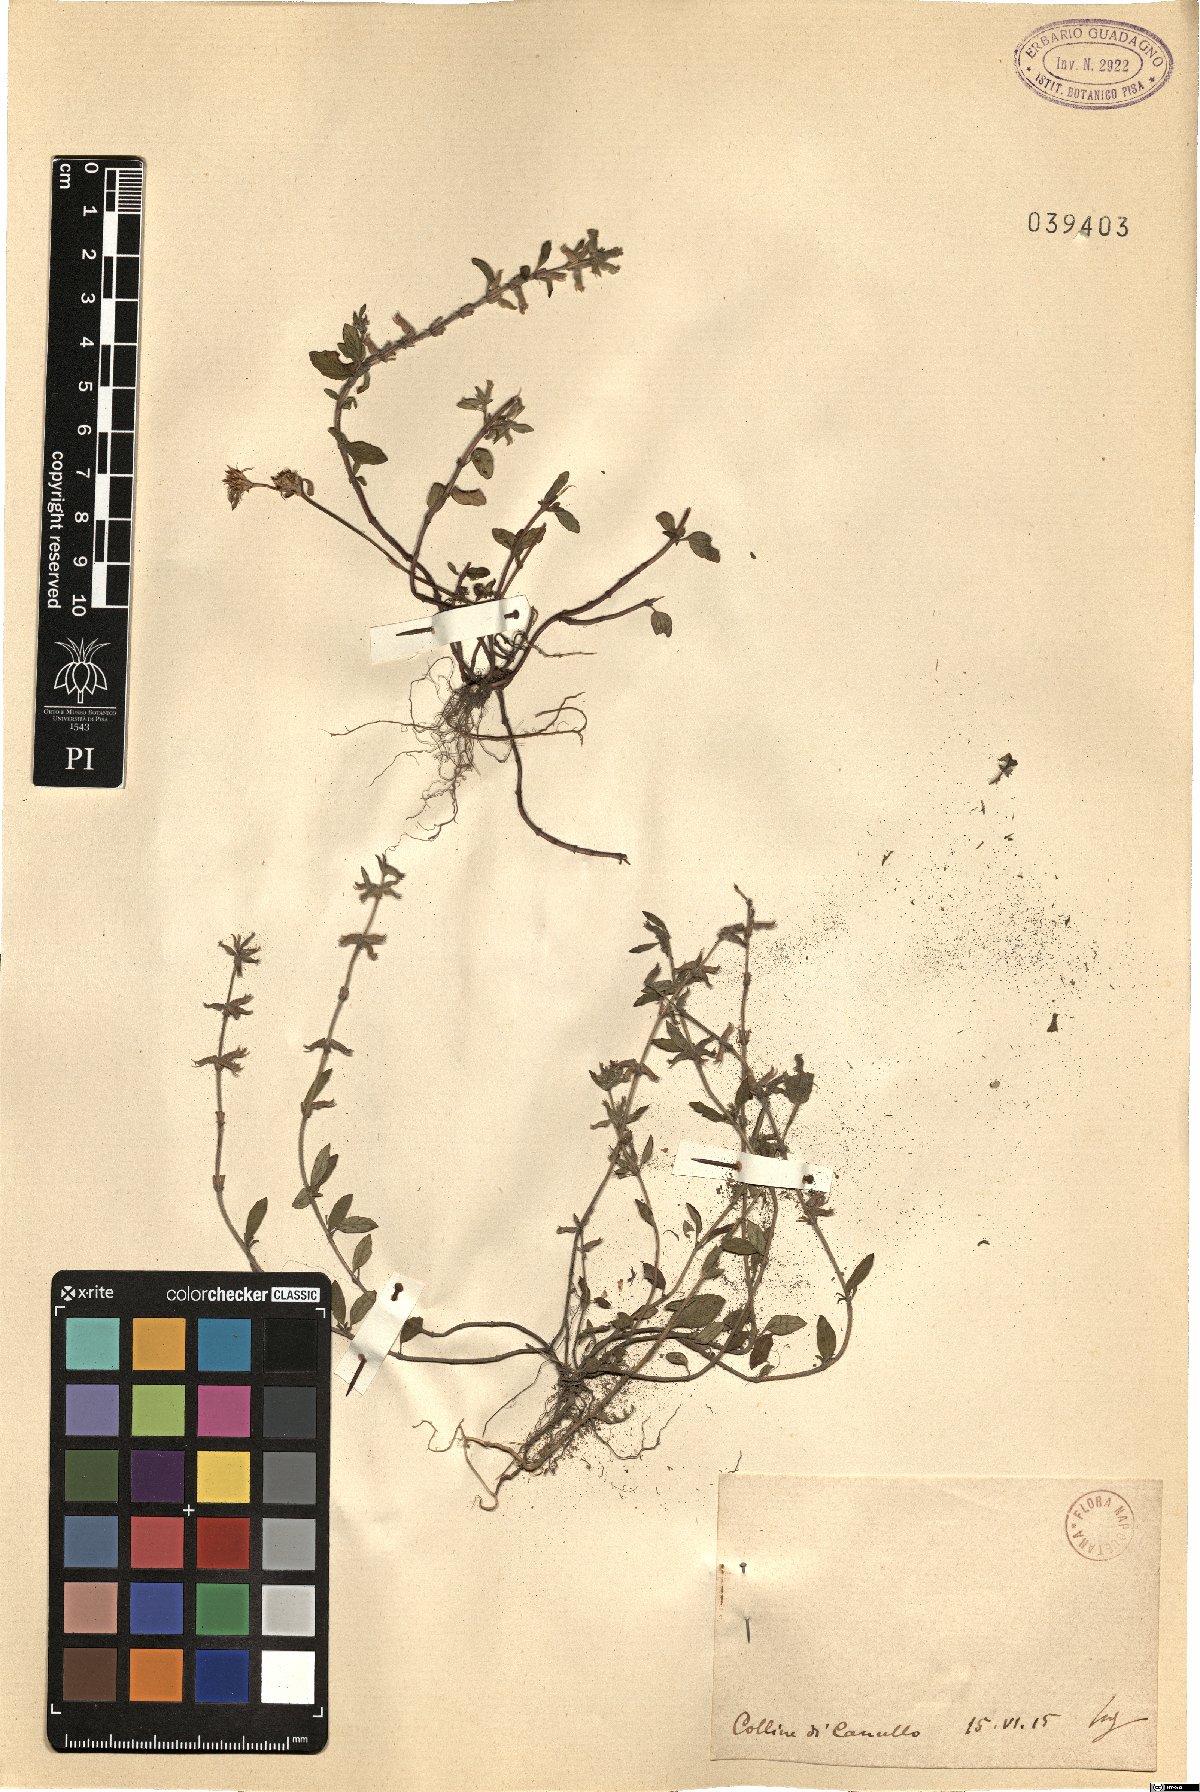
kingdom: Plantae
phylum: Tracheophyta
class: Magnoliopsida
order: Lamiales
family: Lamiaceae
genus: Calamintha
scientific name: Calamintha
